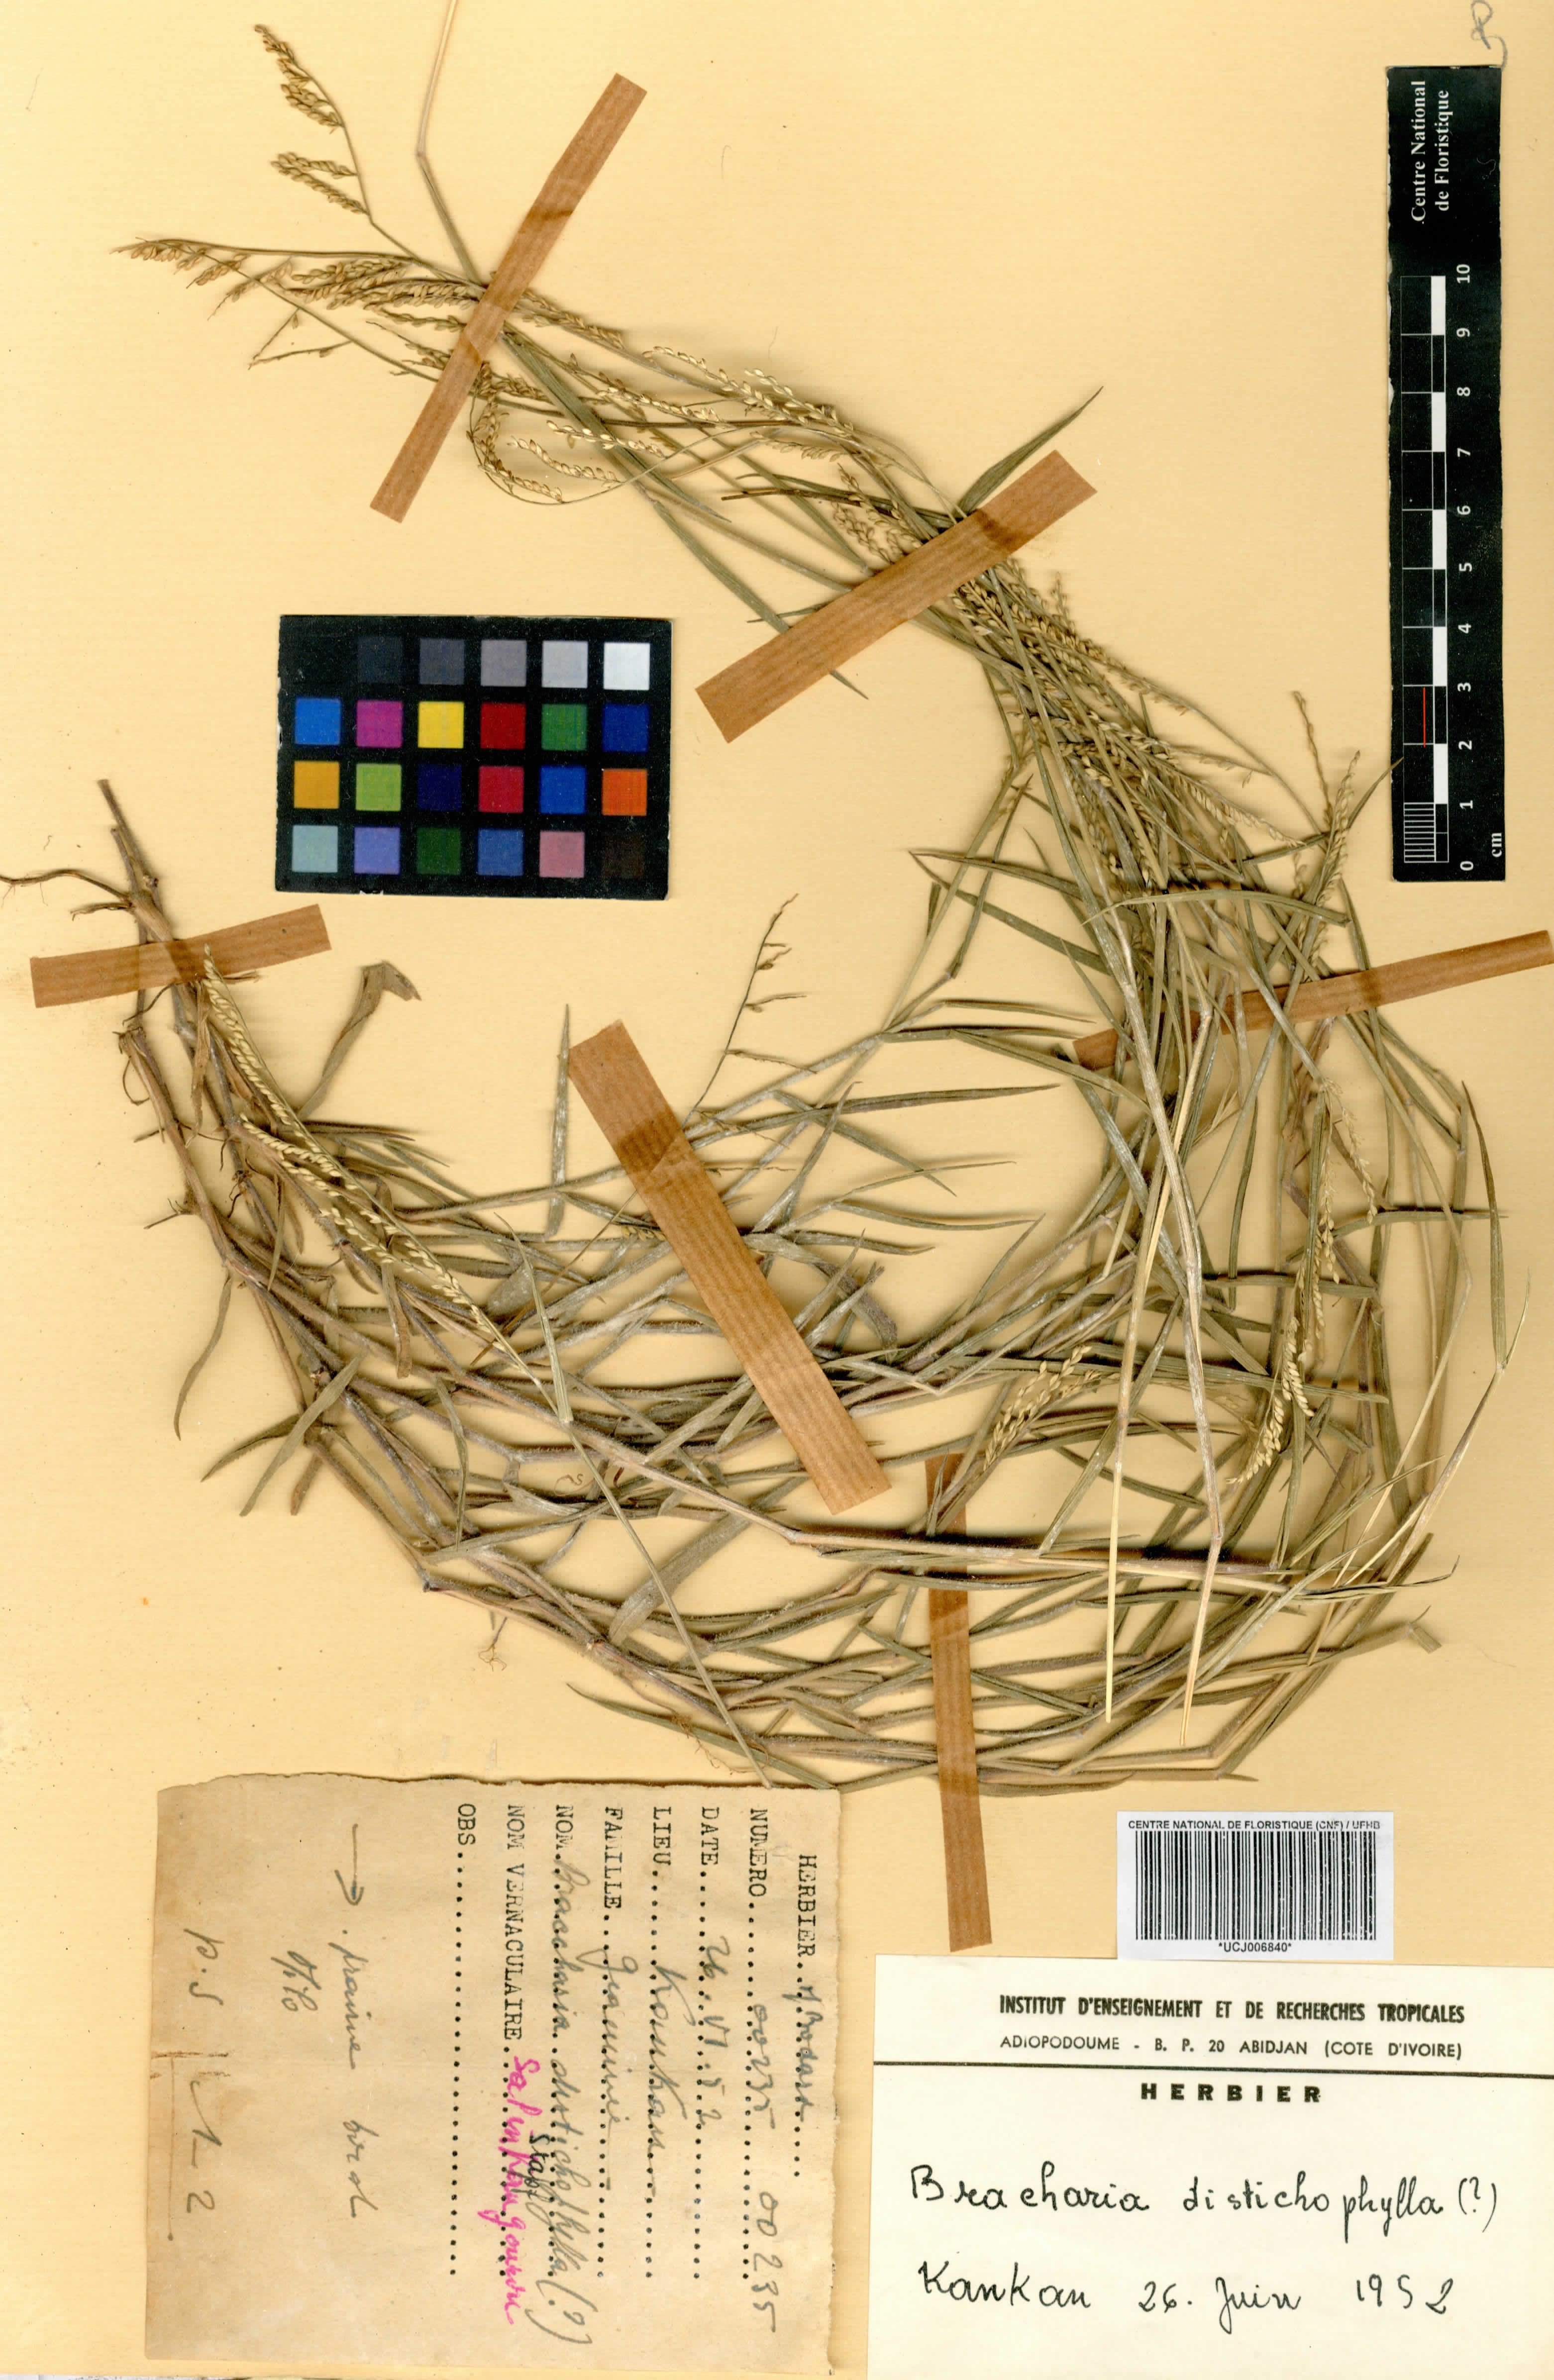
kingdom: Plantae
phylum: Tracheophyta
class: Liliopsida
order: Poales
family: Poaceae
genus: Urochloa
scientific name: Urochloa villosa
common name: Hairy signalgrass
